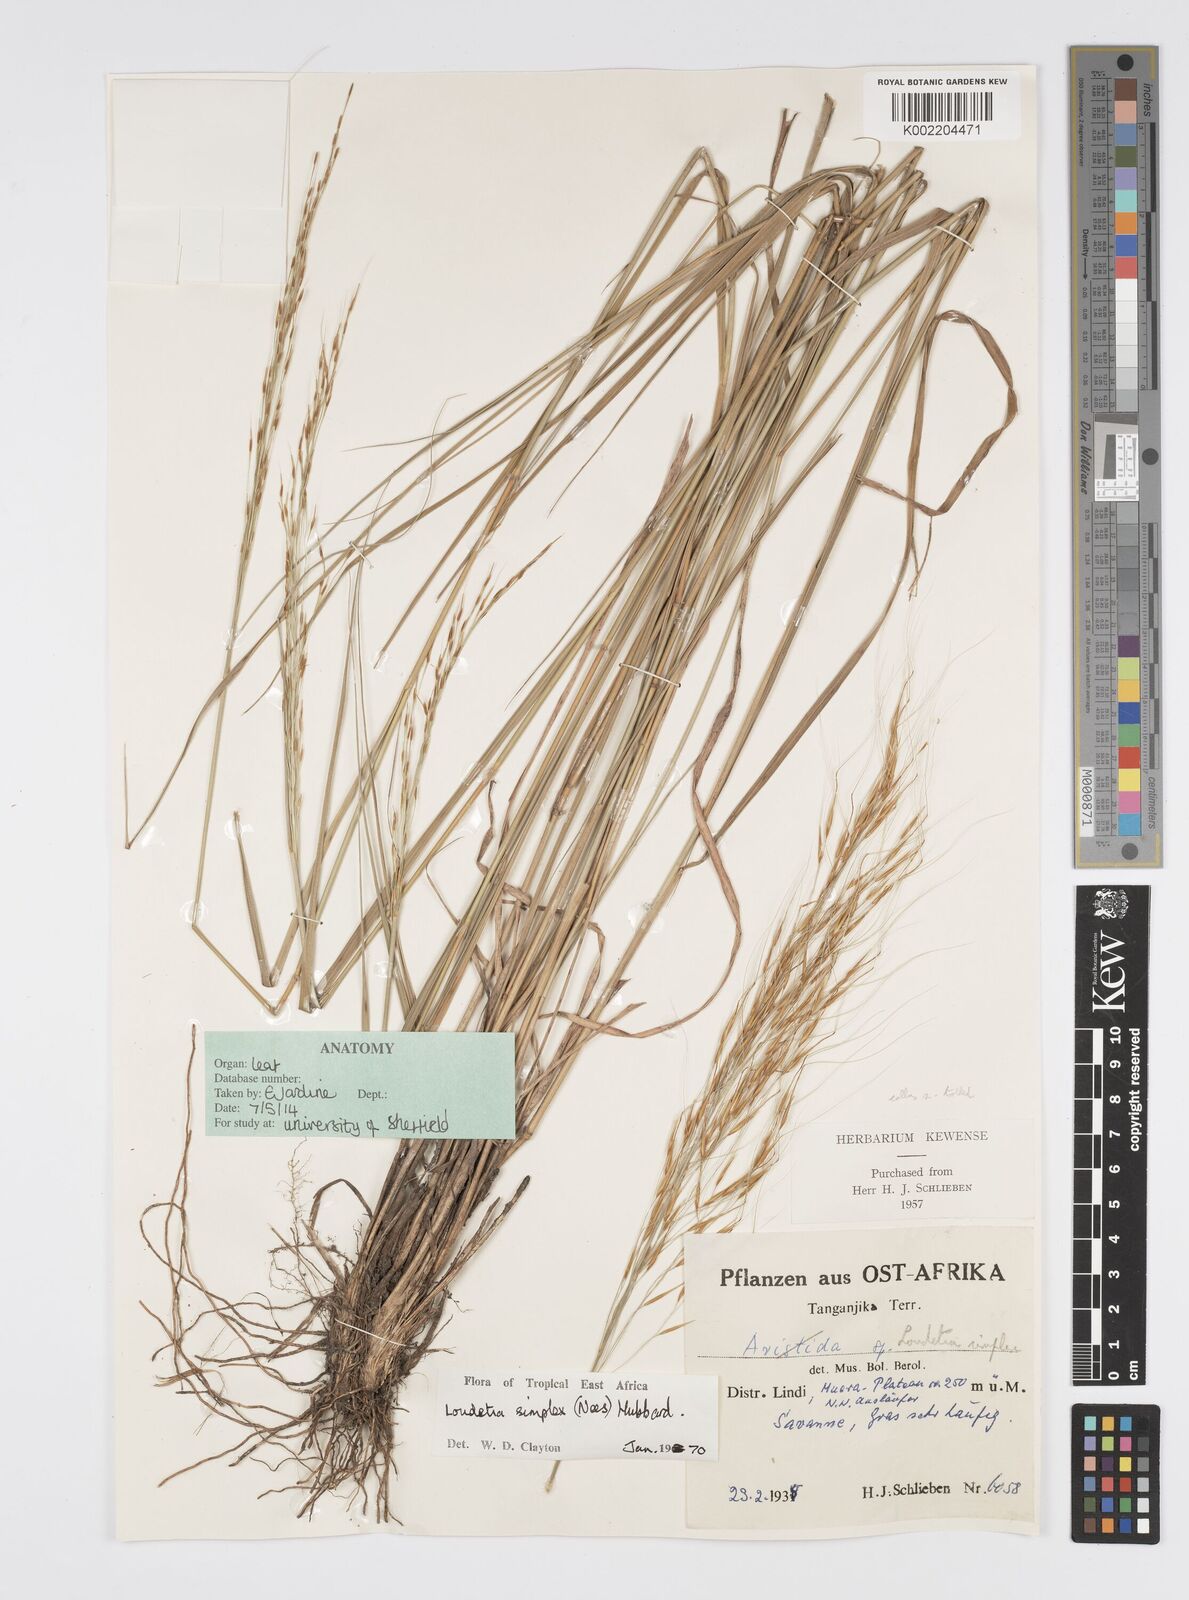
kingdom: Plantae
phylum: Tracheophyta
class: Liliopsida
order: Poales
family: Poaceae
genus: Loudetia
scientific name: Loudetia simplex
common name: Common russet grass
